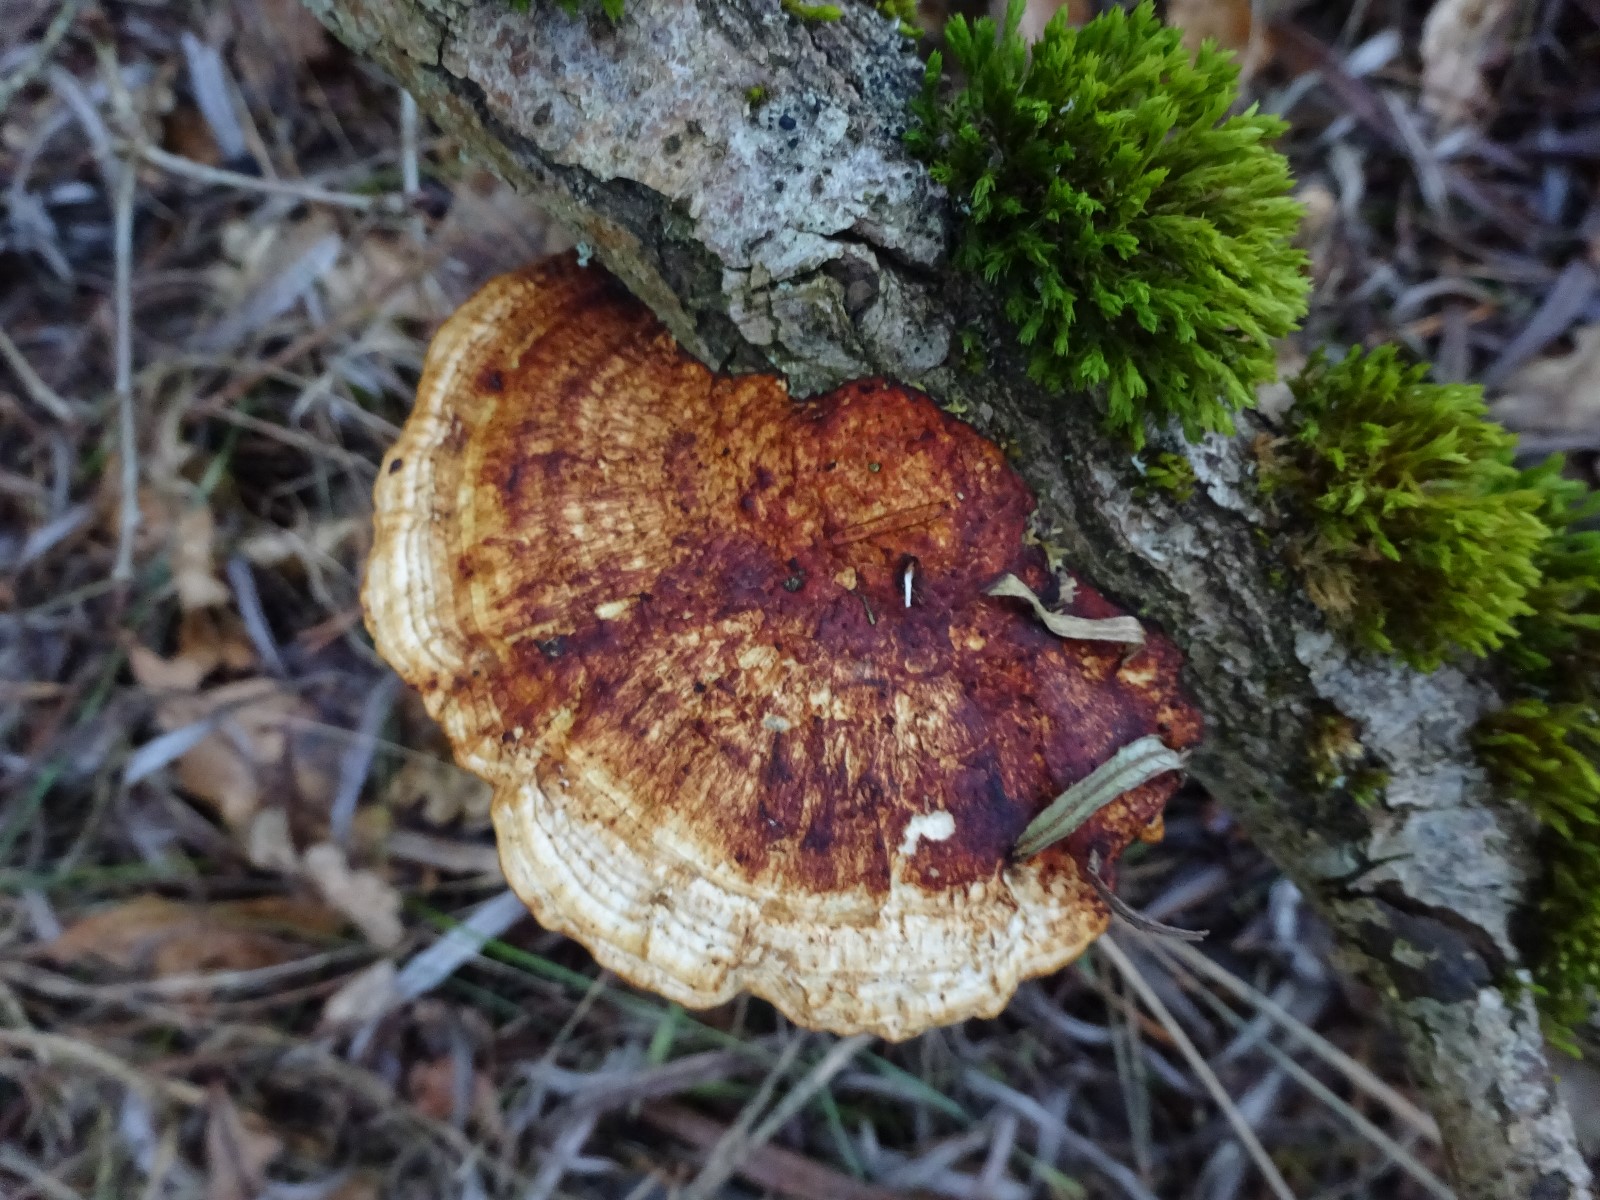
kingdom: Fungi
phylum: Basidiomycota
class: Agaricomycetes
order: Polyporales
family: Polyporaceae
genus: Daedaleopsis
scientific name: Daedaleopsis confragosa
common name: rødmende læderporesvamp
